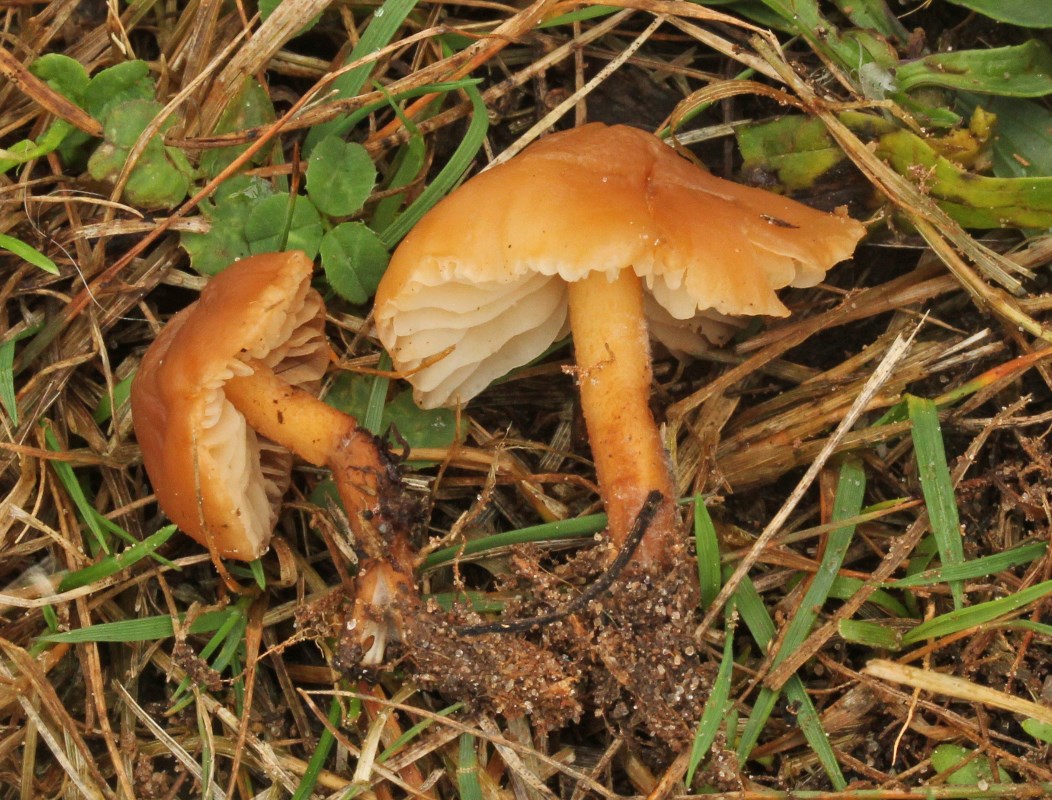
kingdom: Fungi
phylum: Basidiomycota
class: Agaricomycetes
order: Agaricales
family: Marasmiaceae
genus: Marasmius
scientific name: Marasmius oreades
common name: elledans-bruskhat
